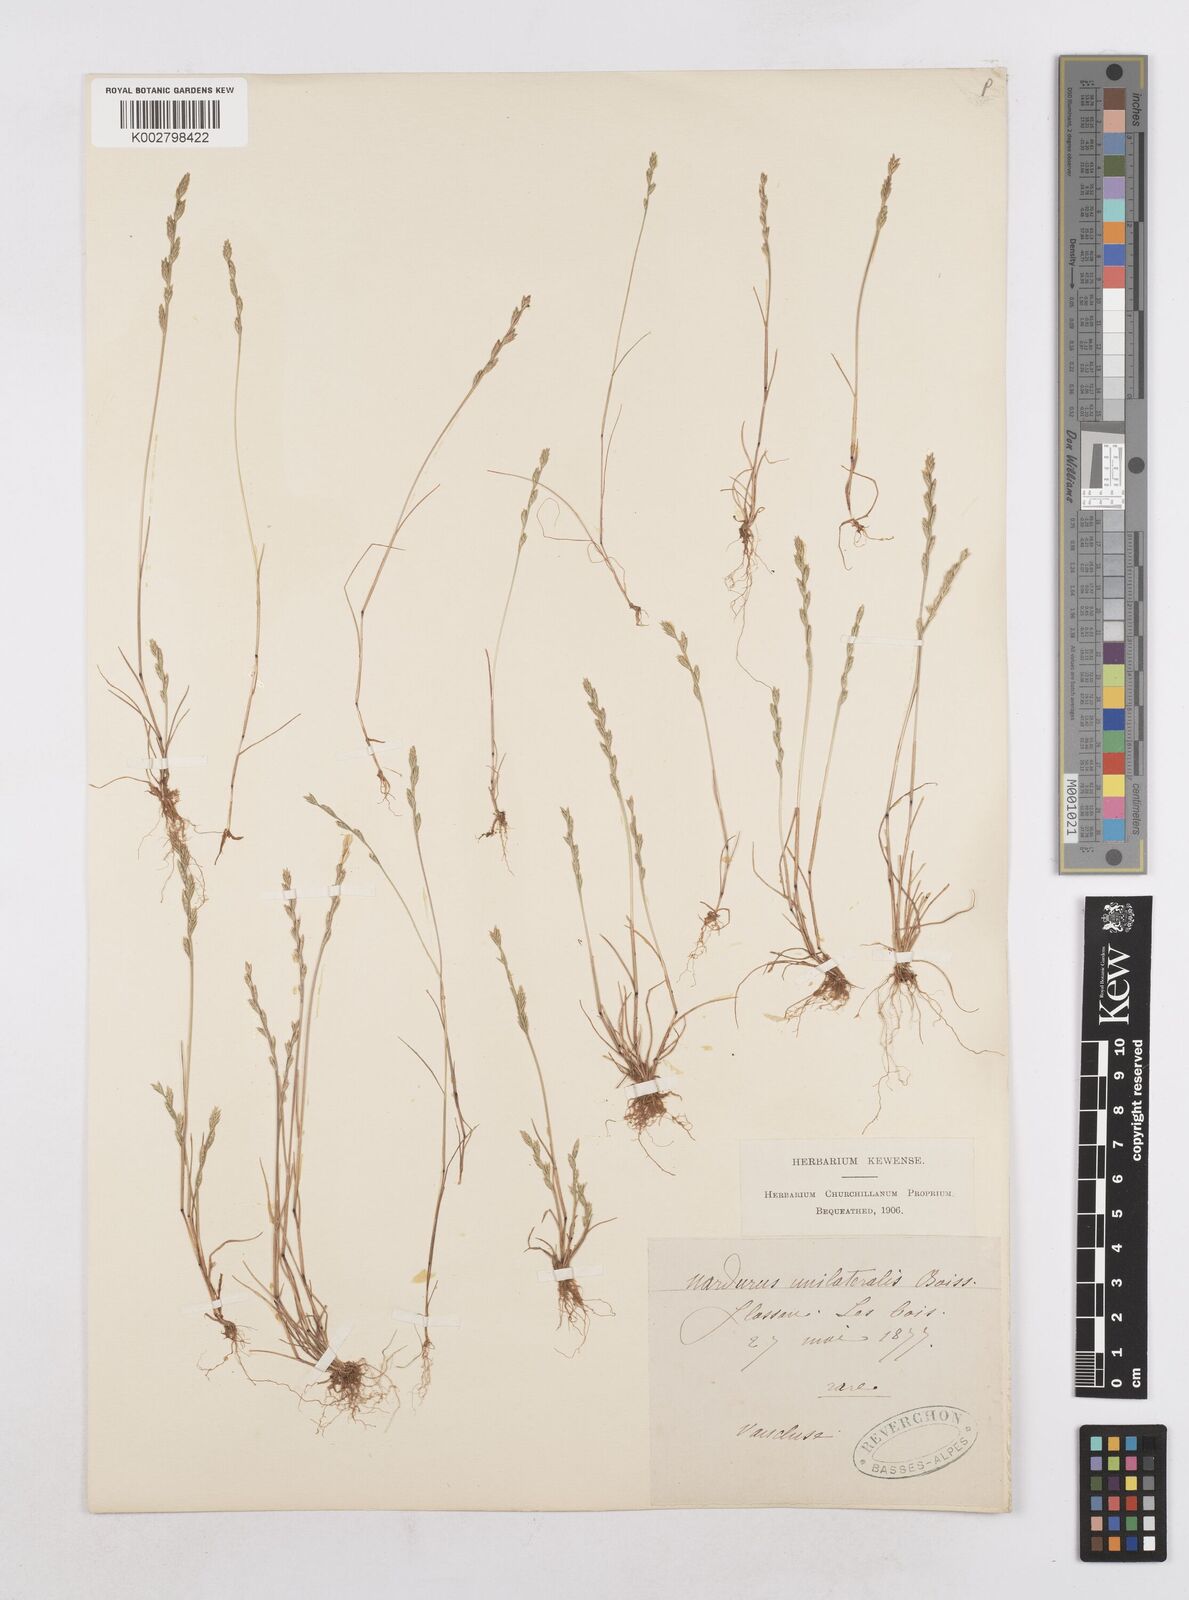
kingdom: Plantae
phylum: Tracheophyta
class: Liliopsida
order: Poales
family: Poaceae
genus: Festuca
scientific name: Festuca lachenalii
